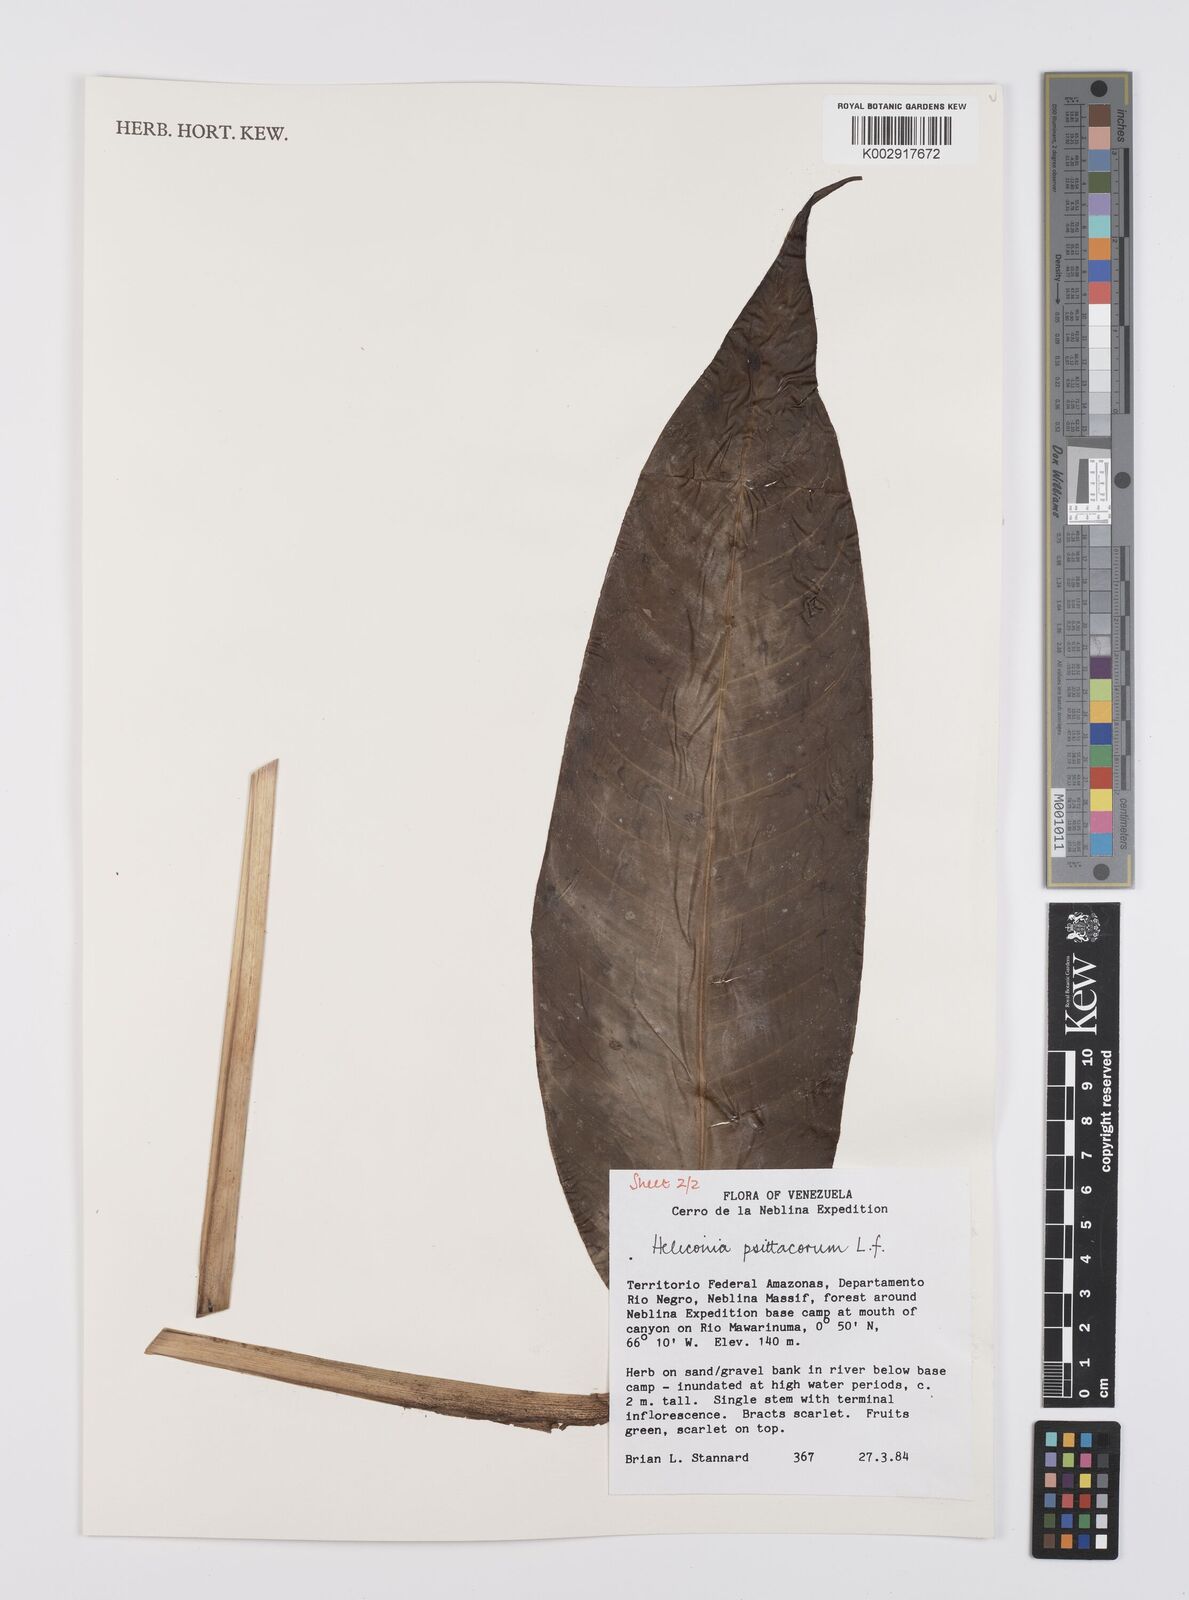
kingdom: Plantae
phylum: Tracheophyta
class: Liliopsida
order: Zingiberales
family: Heliconiaceae
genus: Heliconia
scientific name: Heliconia psittacorum
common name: Parrot's-flower
